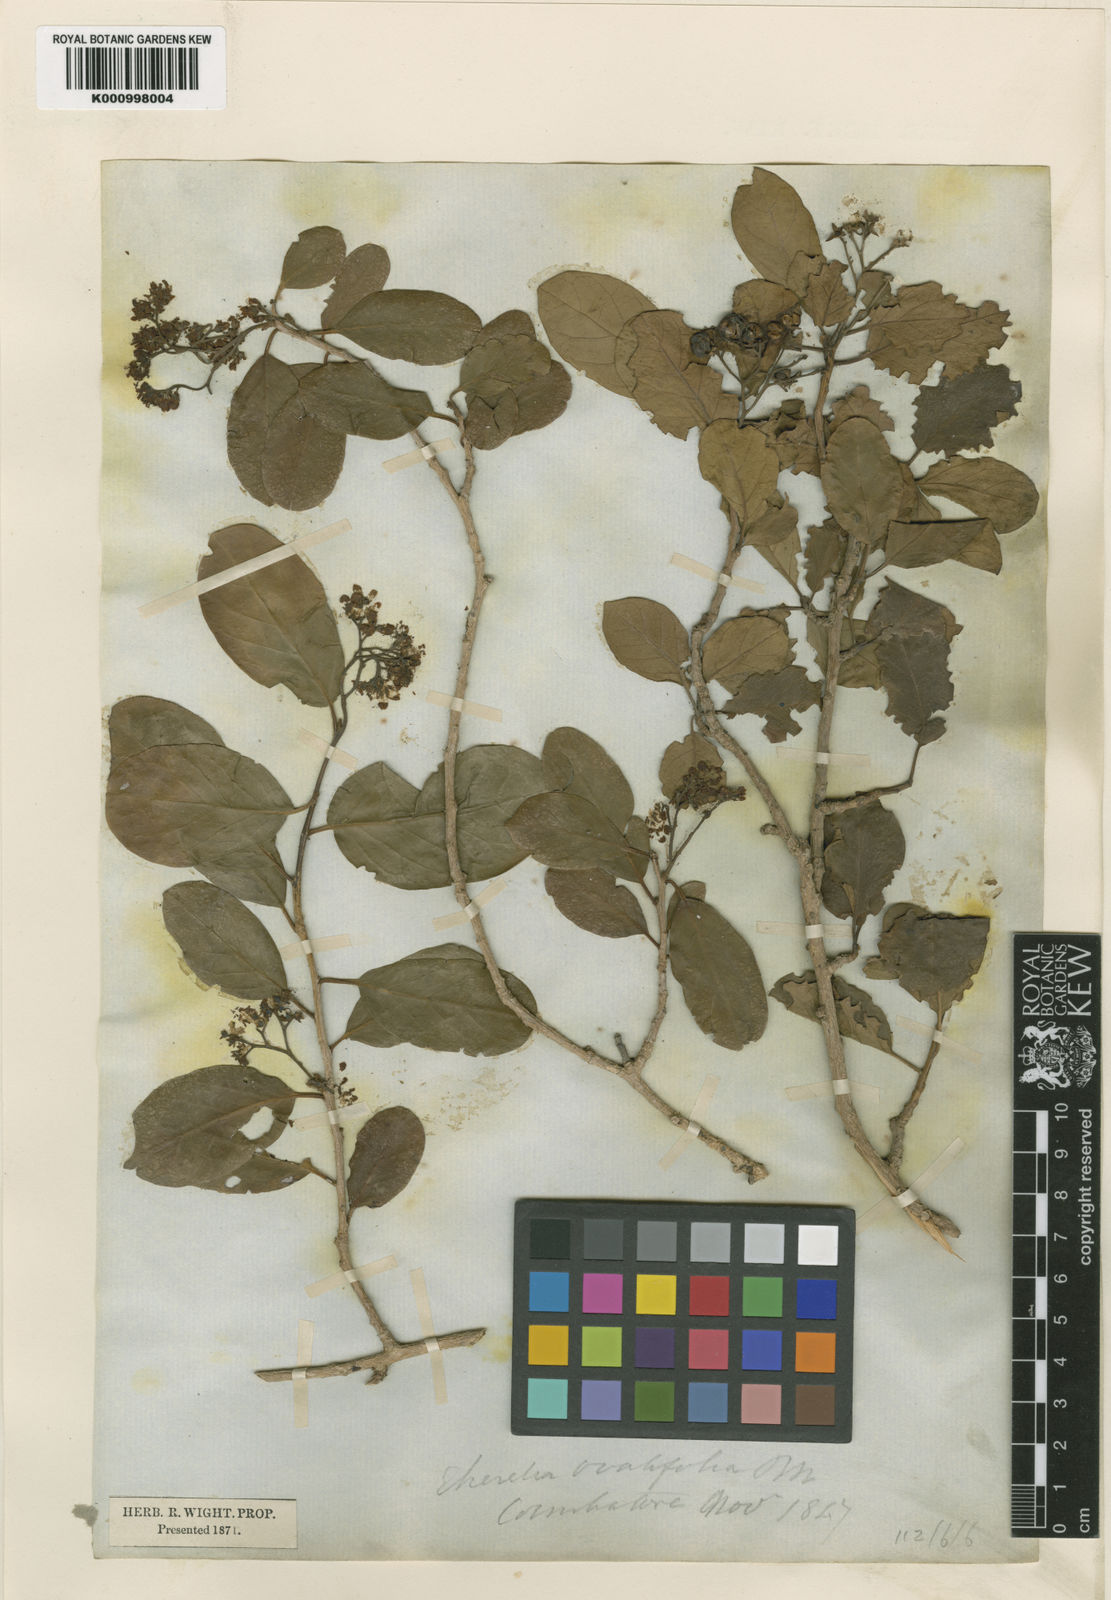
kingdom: Plantae
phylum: Tracheophyta
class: Magnoliopsida
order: Boraginales
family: Ehretiaceae
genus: Ehretia
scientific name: Ehretia matthewii
